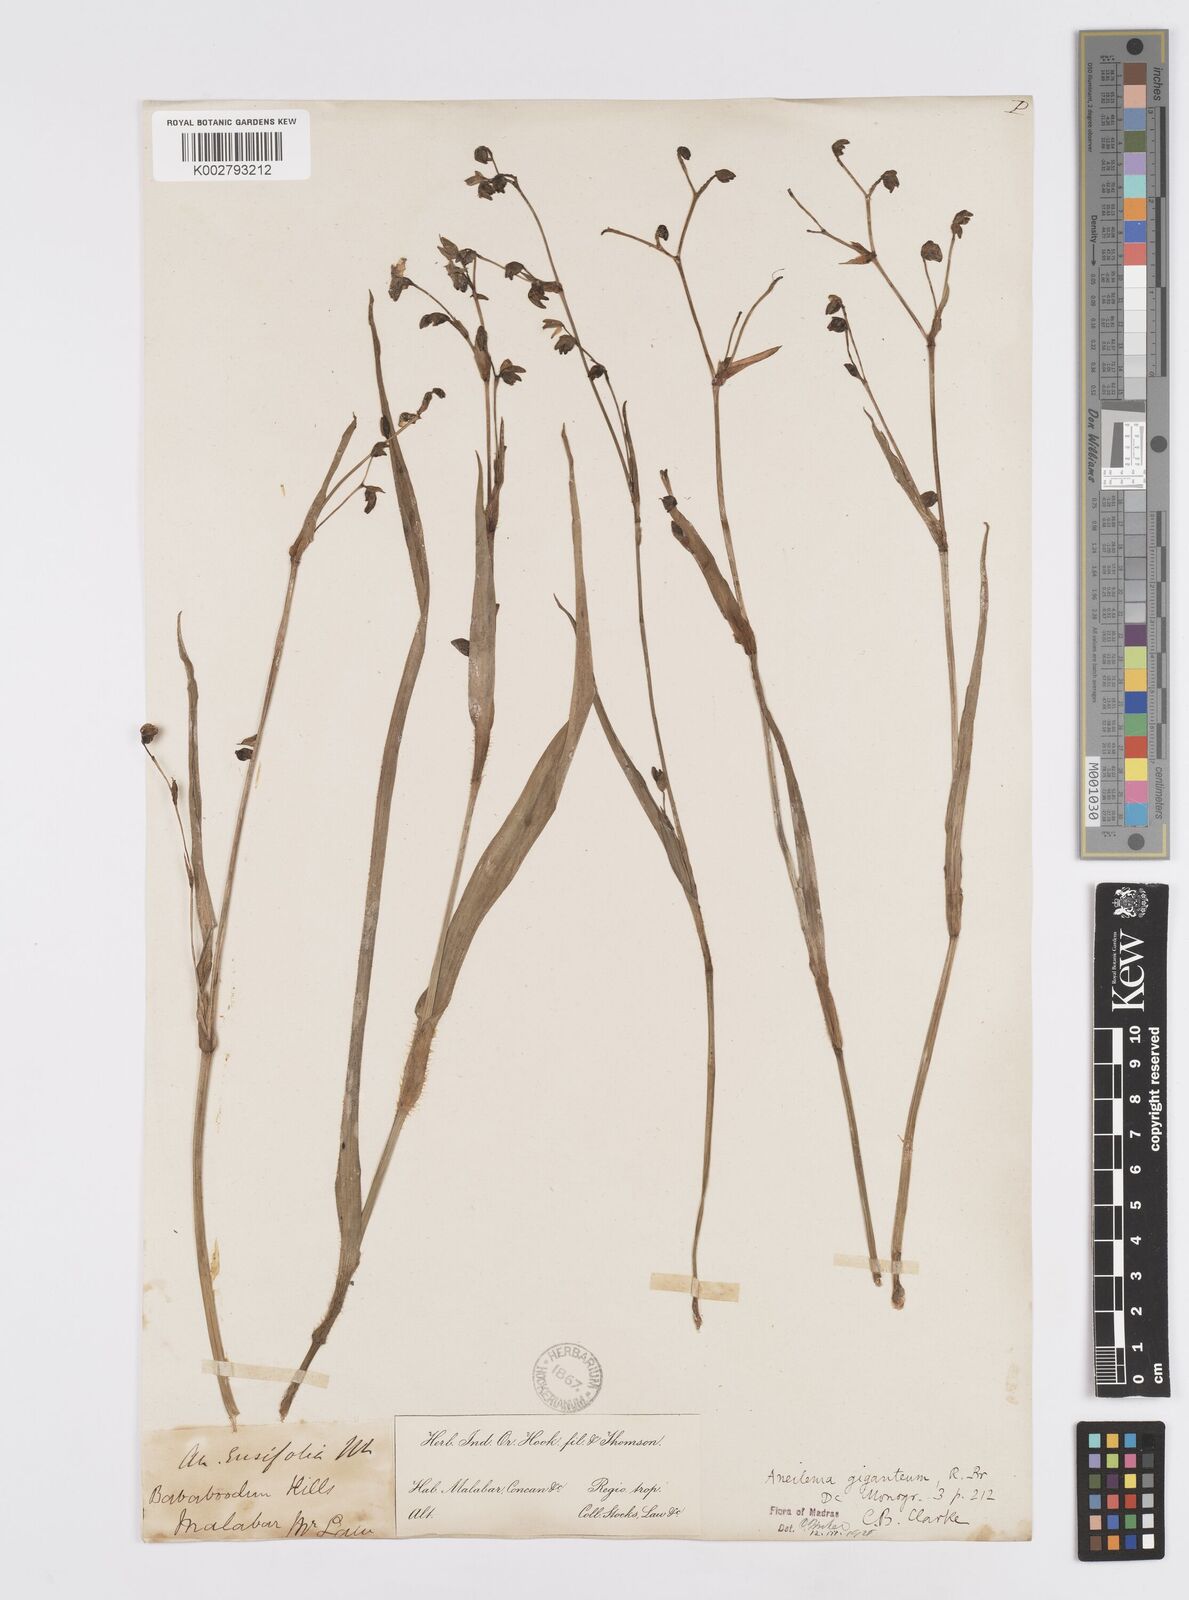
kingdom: Plantae
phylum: Tracheophyta
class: Liliopsida
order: Commelinales
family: Commelinaceae
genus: Murdannia
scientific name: Murdannia simplex
